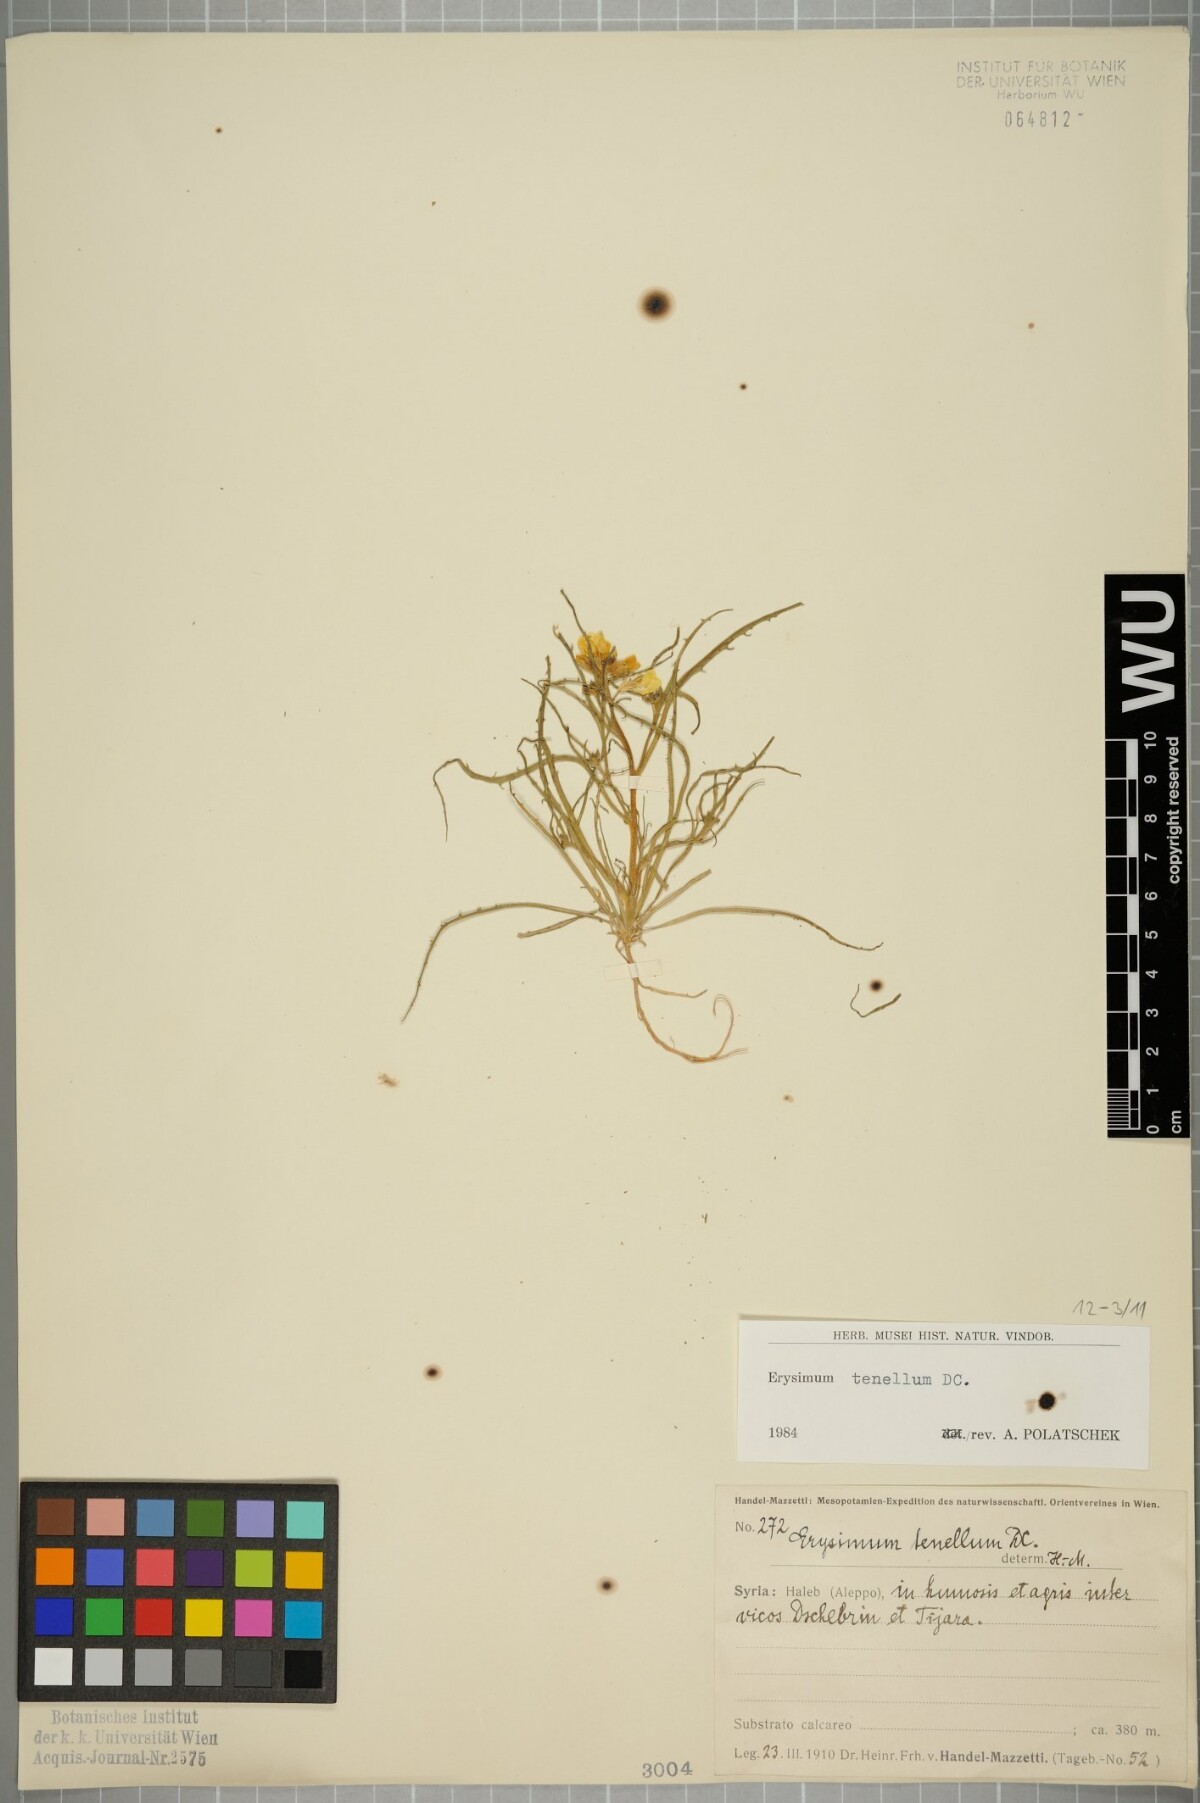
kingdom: Plantae
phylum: Tracheophyta
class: Magnoliopsida
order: Brassicales
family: Brassicaceae
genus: Erysimum
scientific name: Erysimum tenellum
